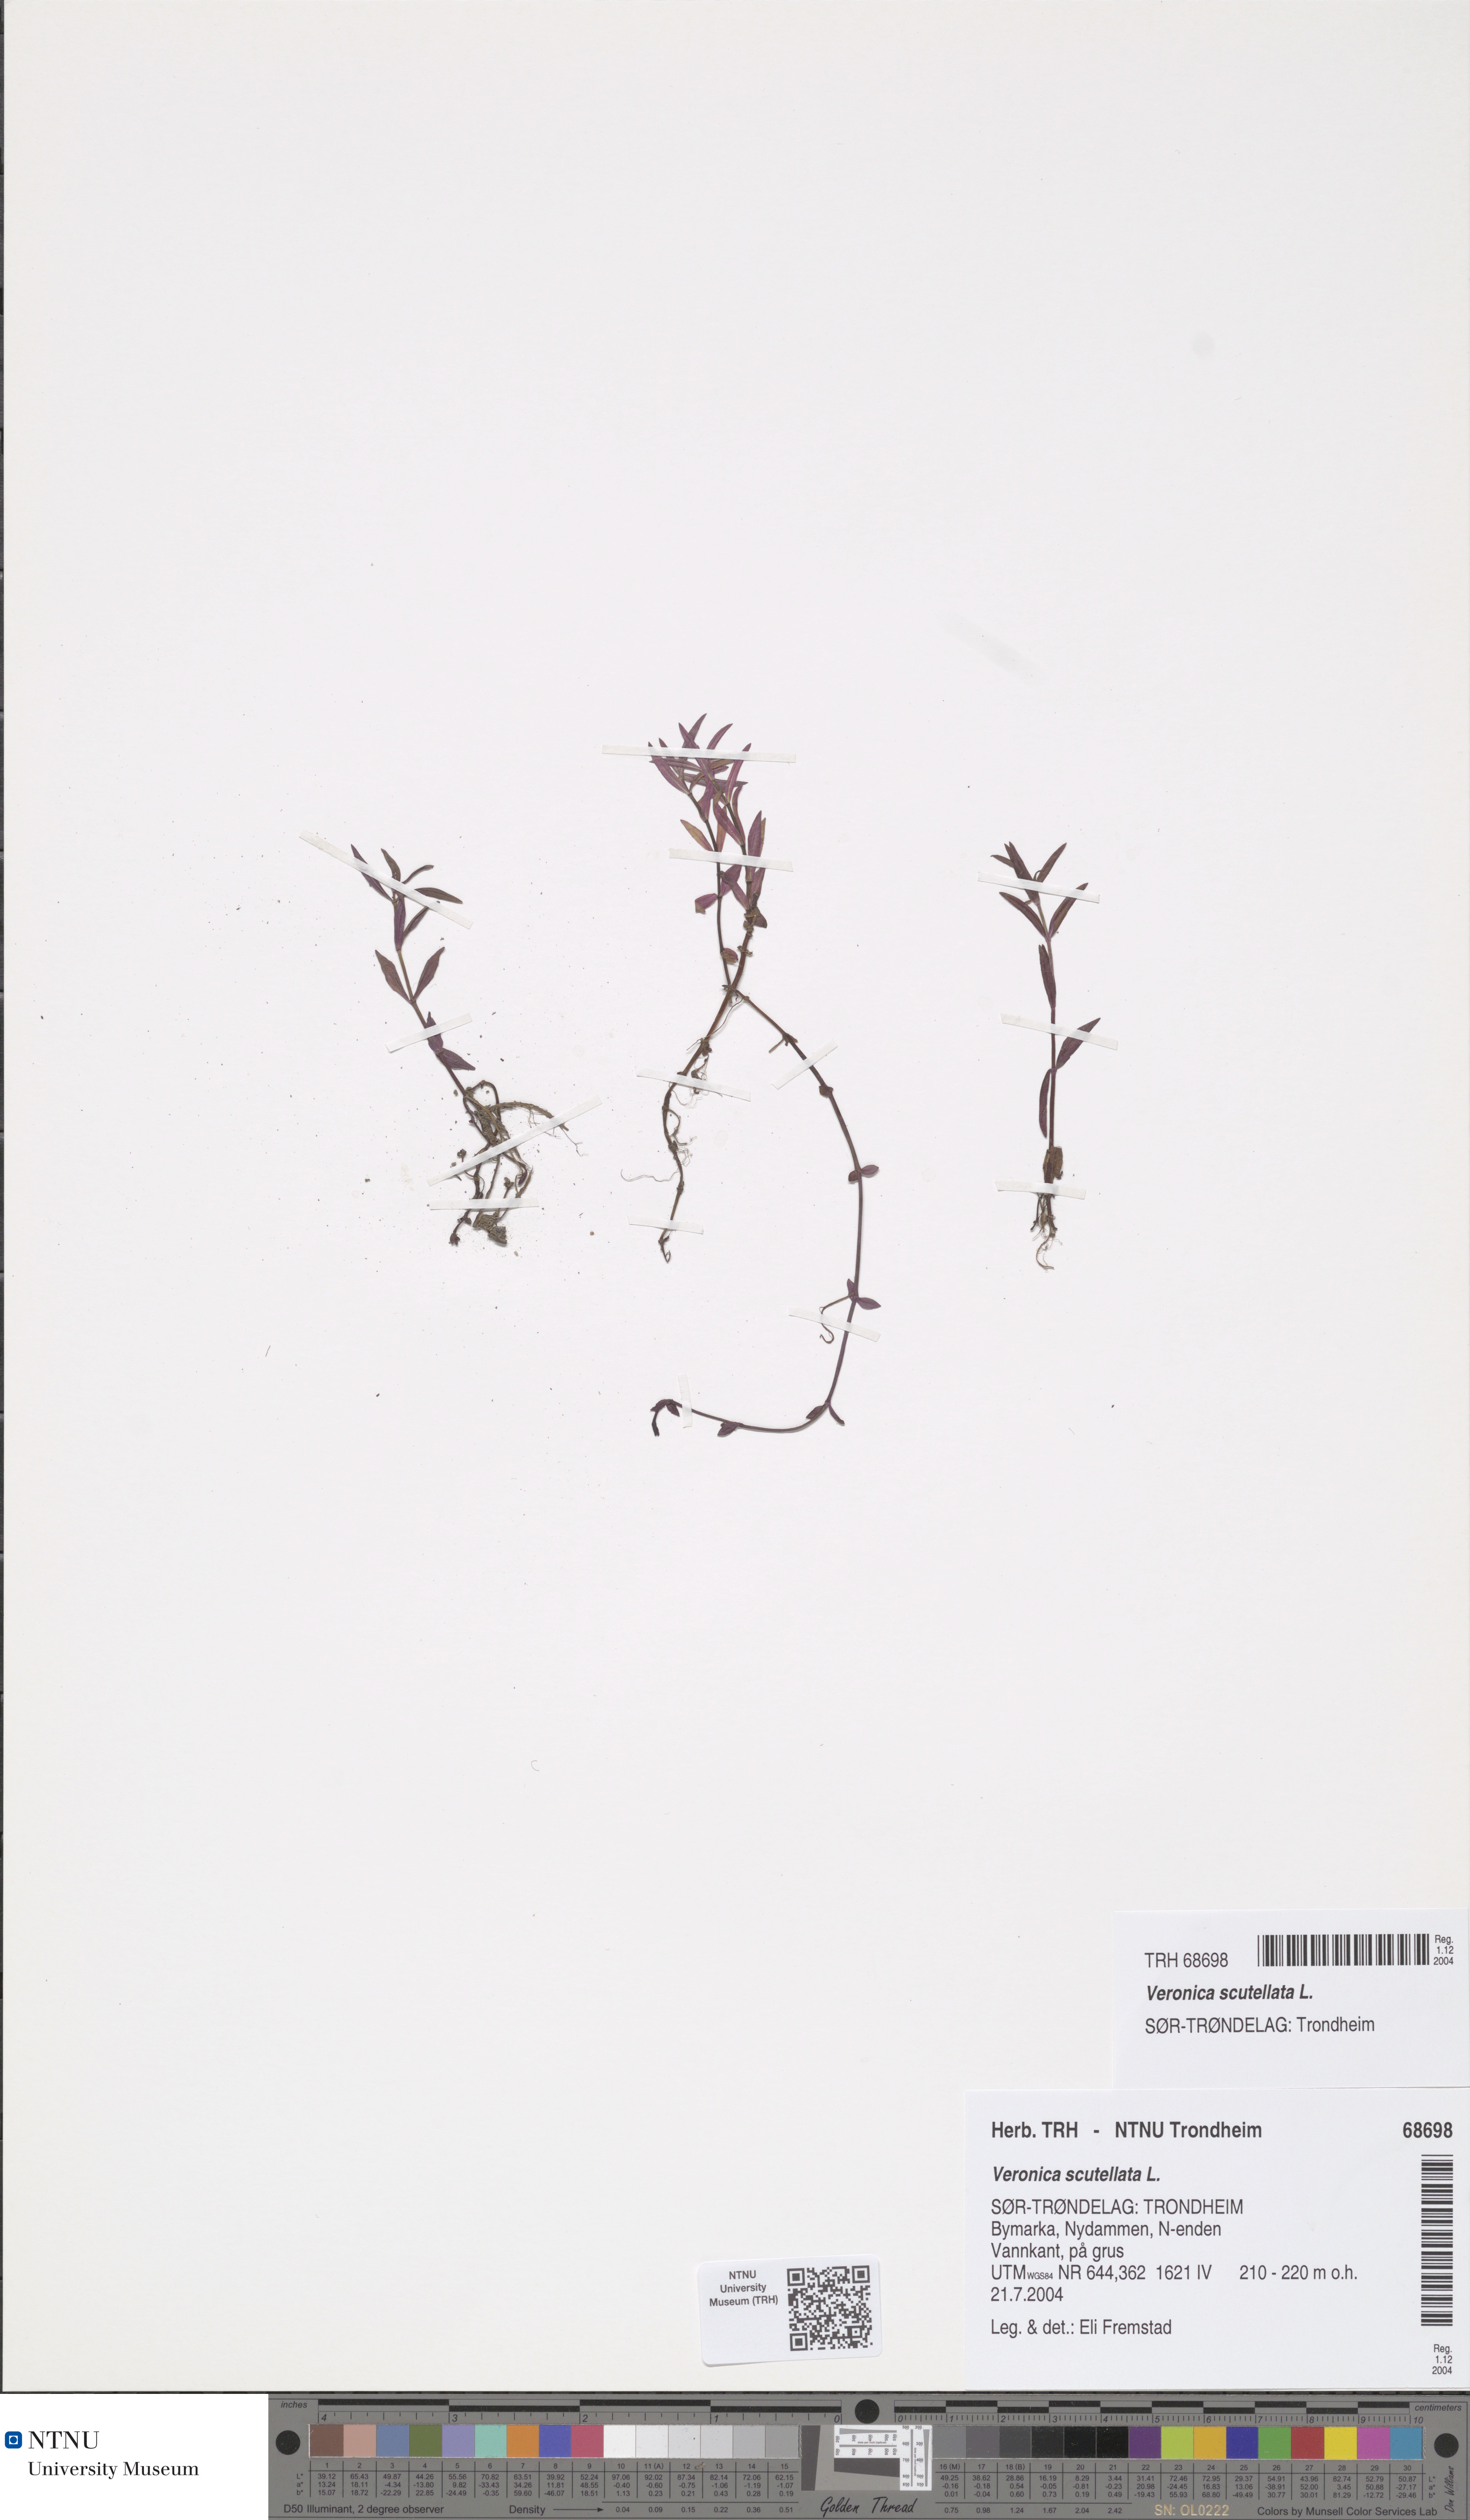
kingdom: Plantae
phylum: Tracheophyta
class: Magnoliopsida
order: Lamiales
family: Plantaginaceae
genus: Veronica
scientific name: Veronica scutellata
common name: Marsh speedwell
